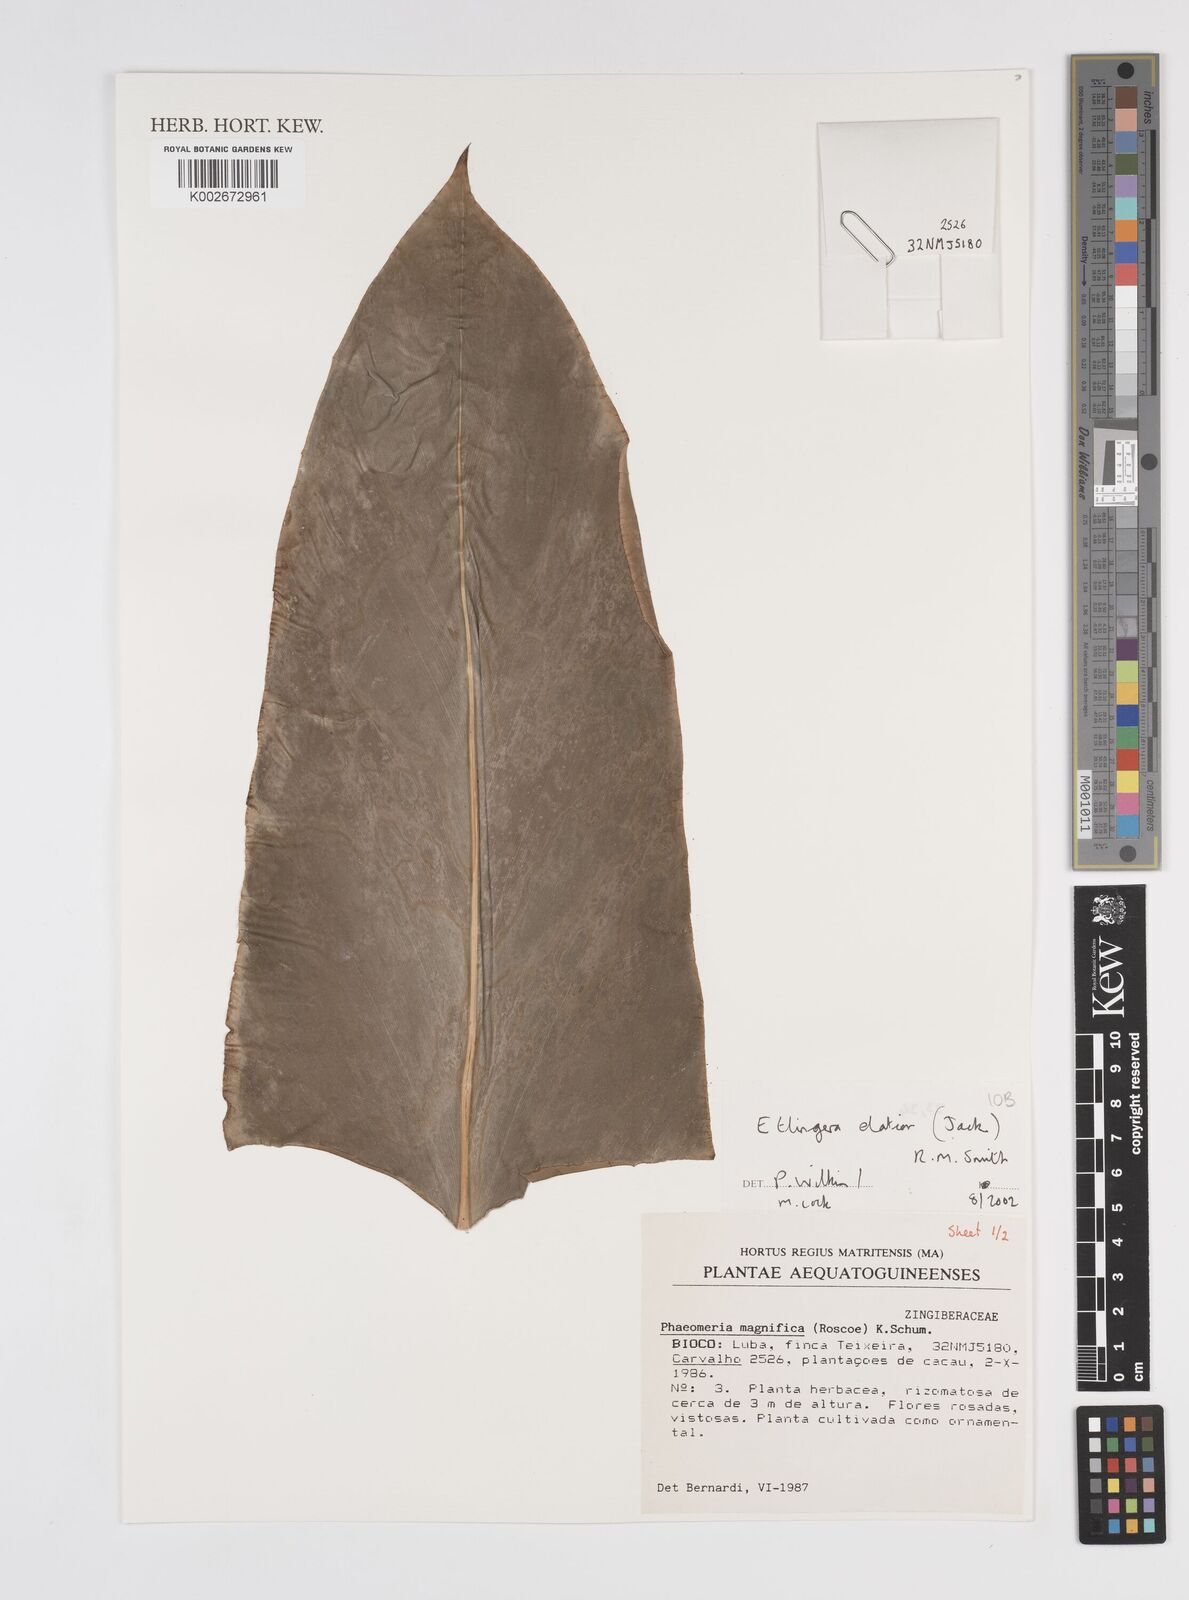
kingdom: Plantae
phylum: Tracheophyta
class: Liliopsida
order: Zingiberales
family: Zingiberaceae
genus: Etlingera
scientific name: Etlingera elatior
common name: Philippine waxflower
